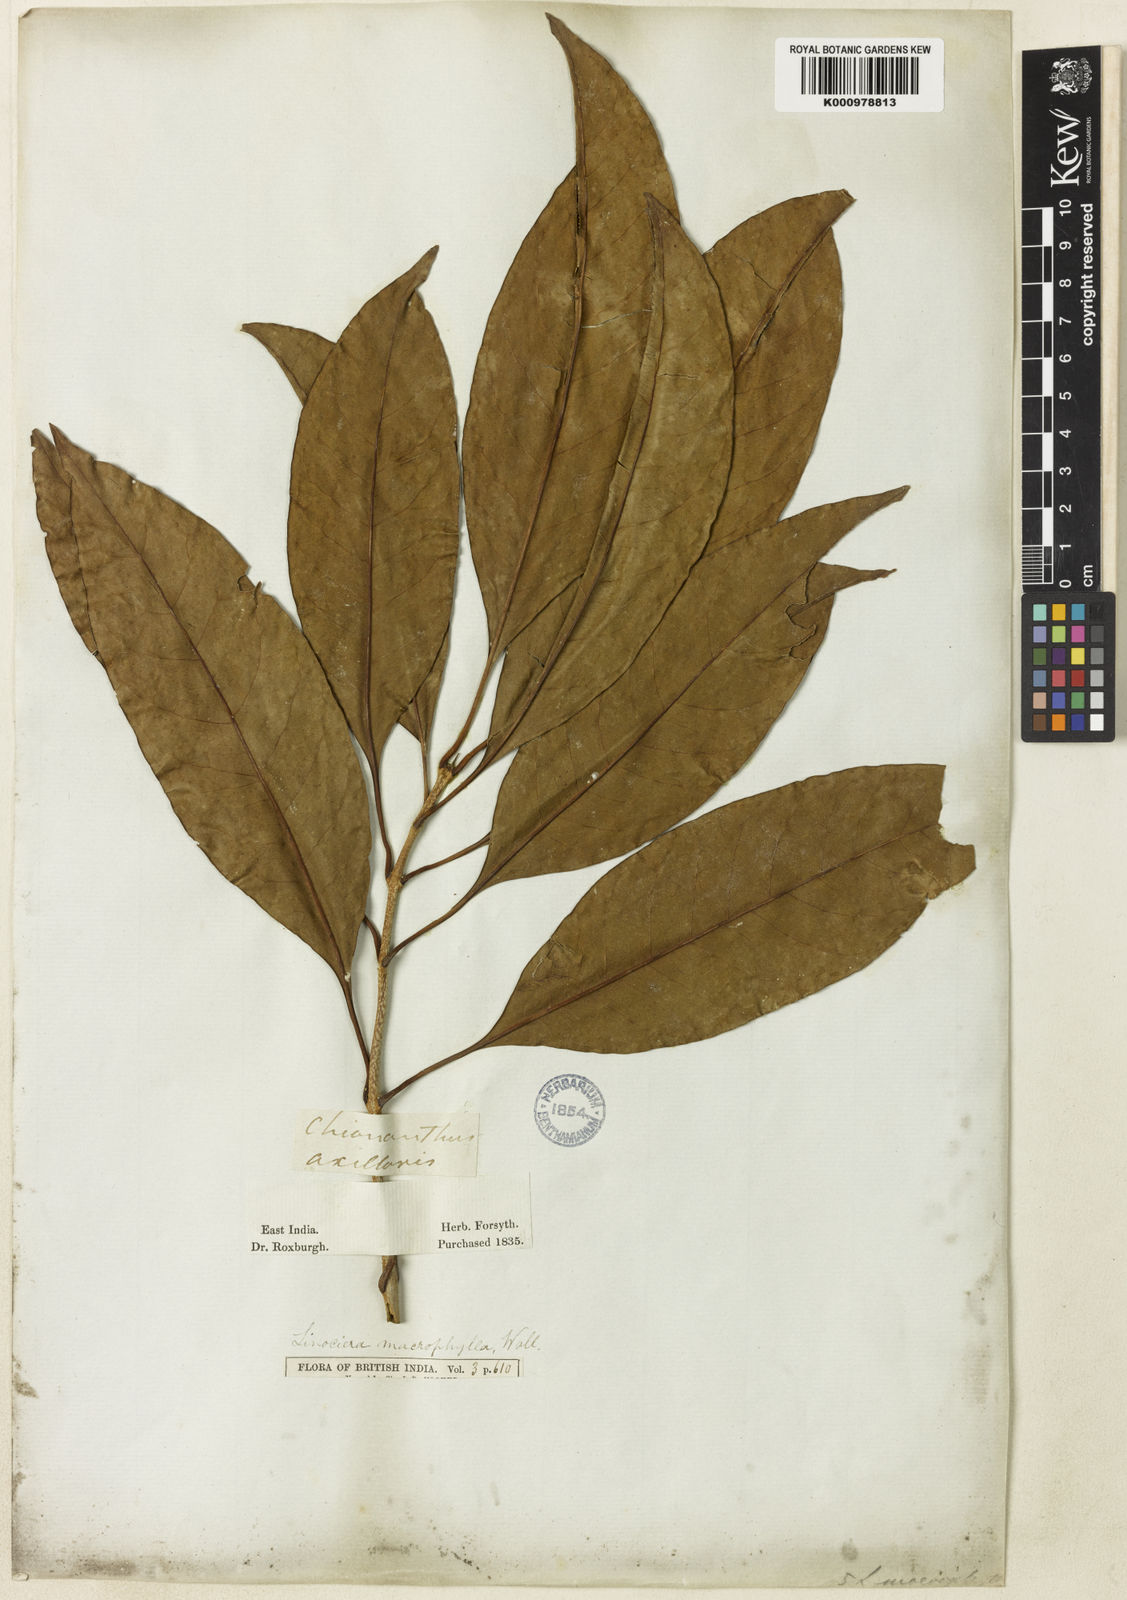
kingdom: Plantae
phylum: Tracheophyta
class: Magnoliopsida
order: Lamiales
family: Oleaceae
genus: Chionanthus
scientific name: Chionanthus ramiflorus
